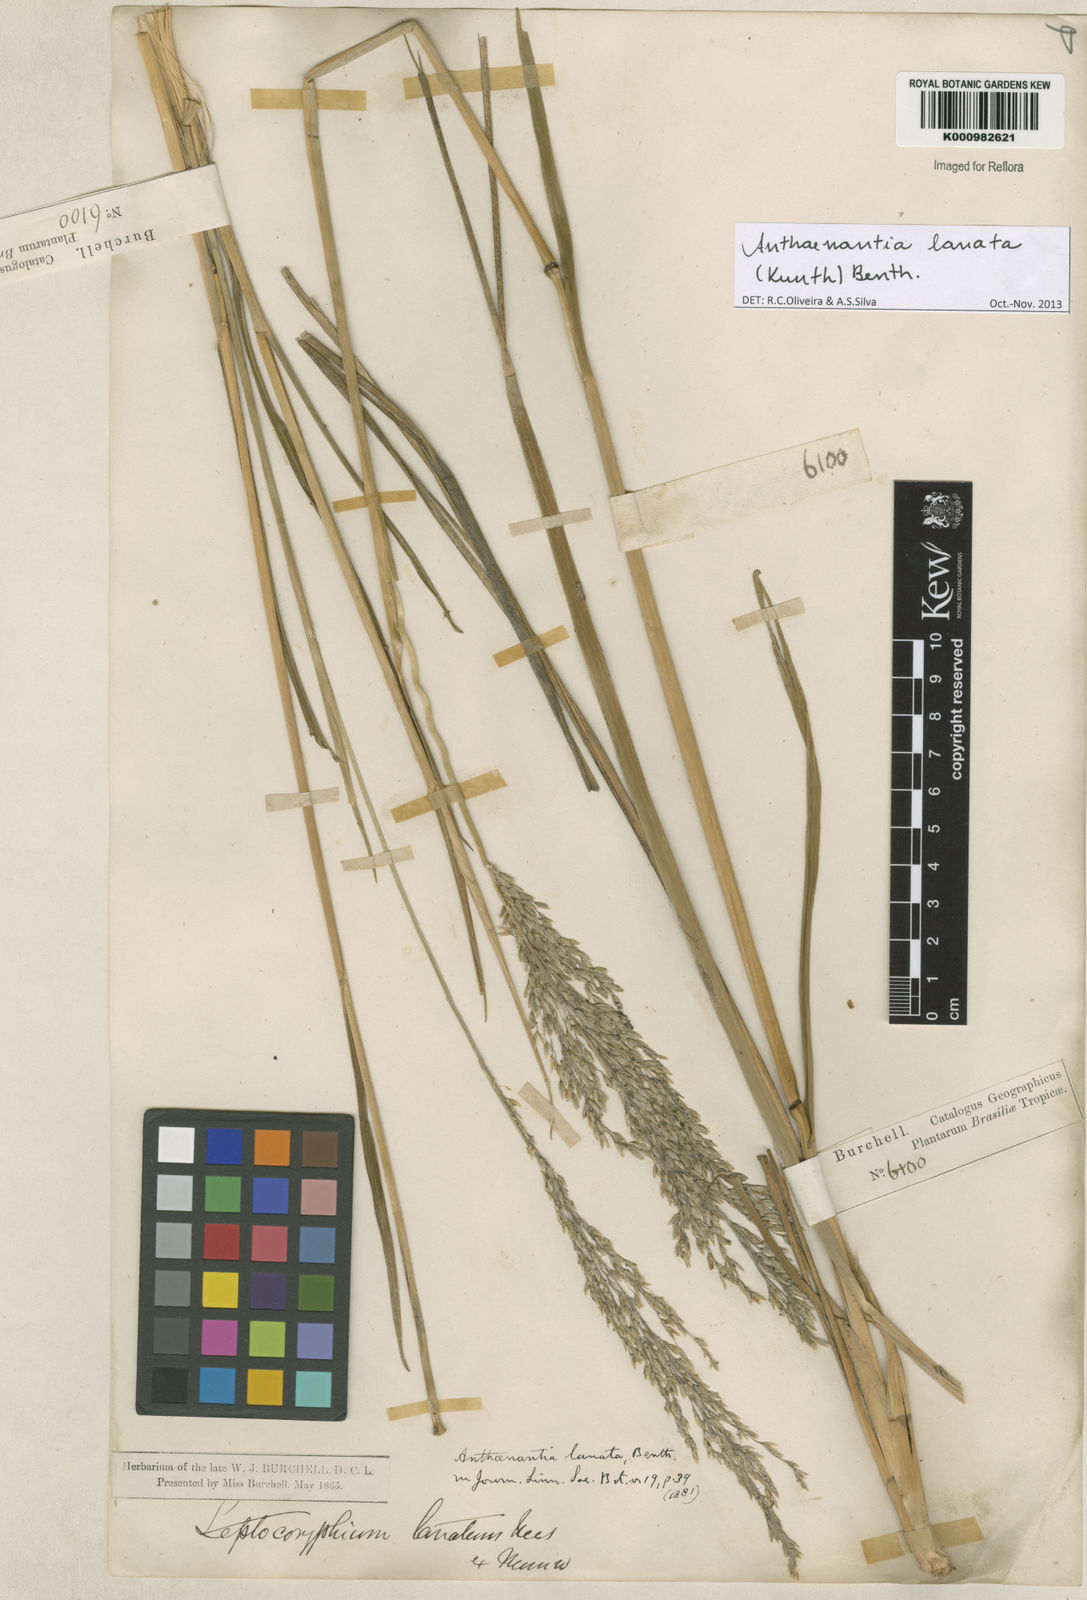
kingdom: Plantae
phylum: Tracheophyta
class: Liliopsida
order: Poales
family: Poaceae
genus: Anthenantia
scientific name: Anthenantia lanata
